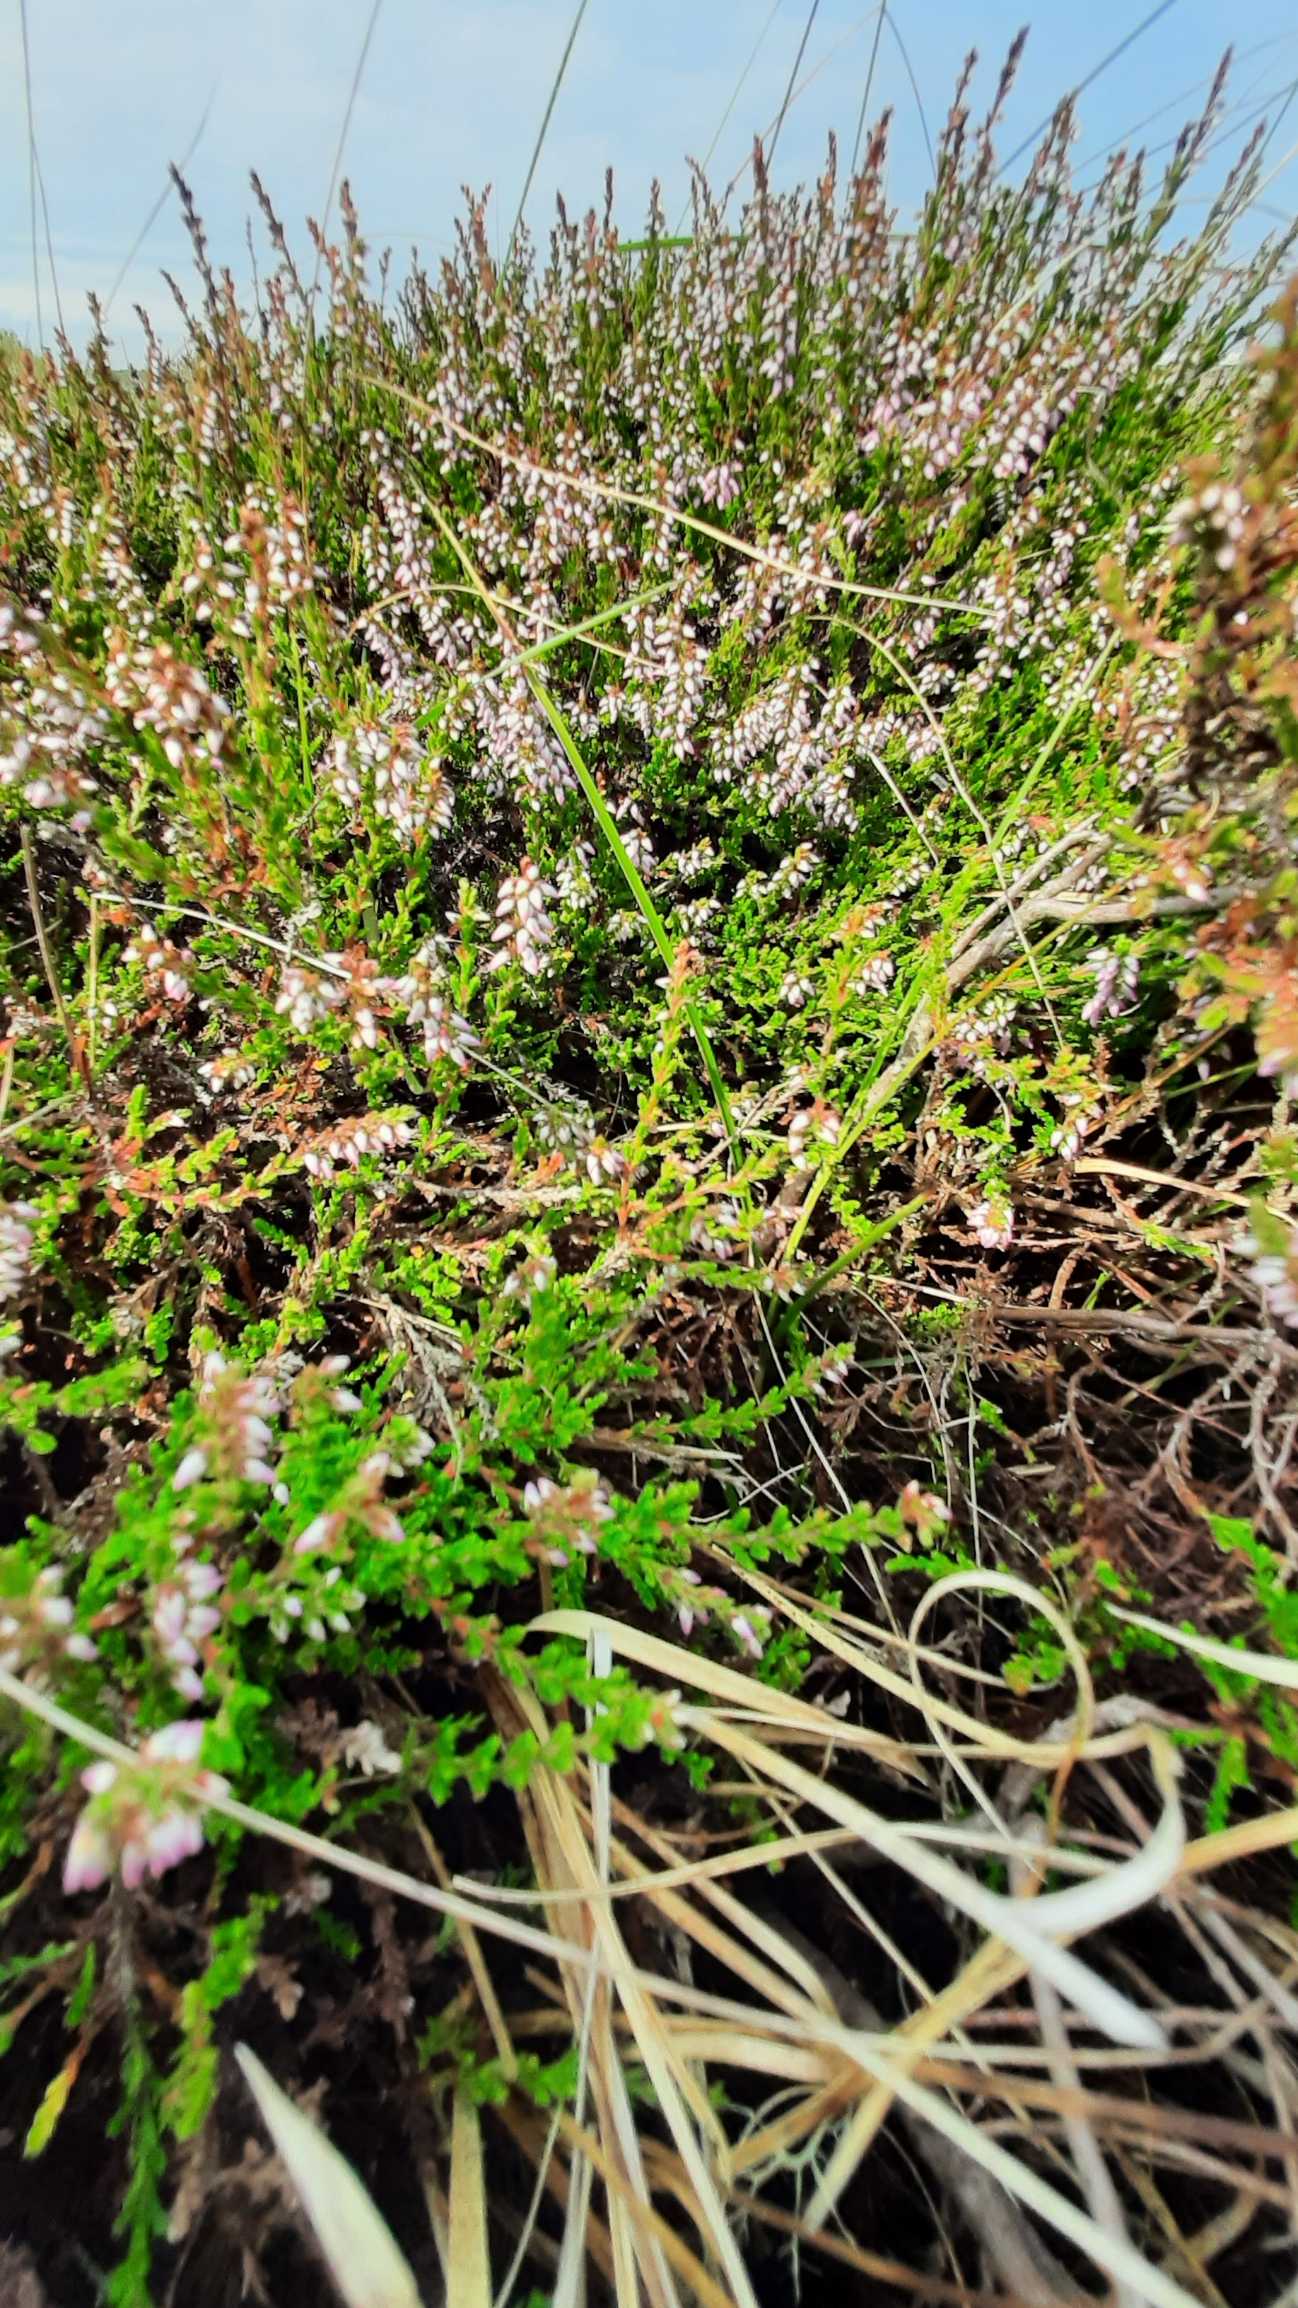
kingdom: Plantae
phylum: Tracheophyta
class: Magnoliopsida
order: Ericales
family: Ericaceae
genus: Calluna
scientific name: Calluna vulgaris
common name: Hedelyng
